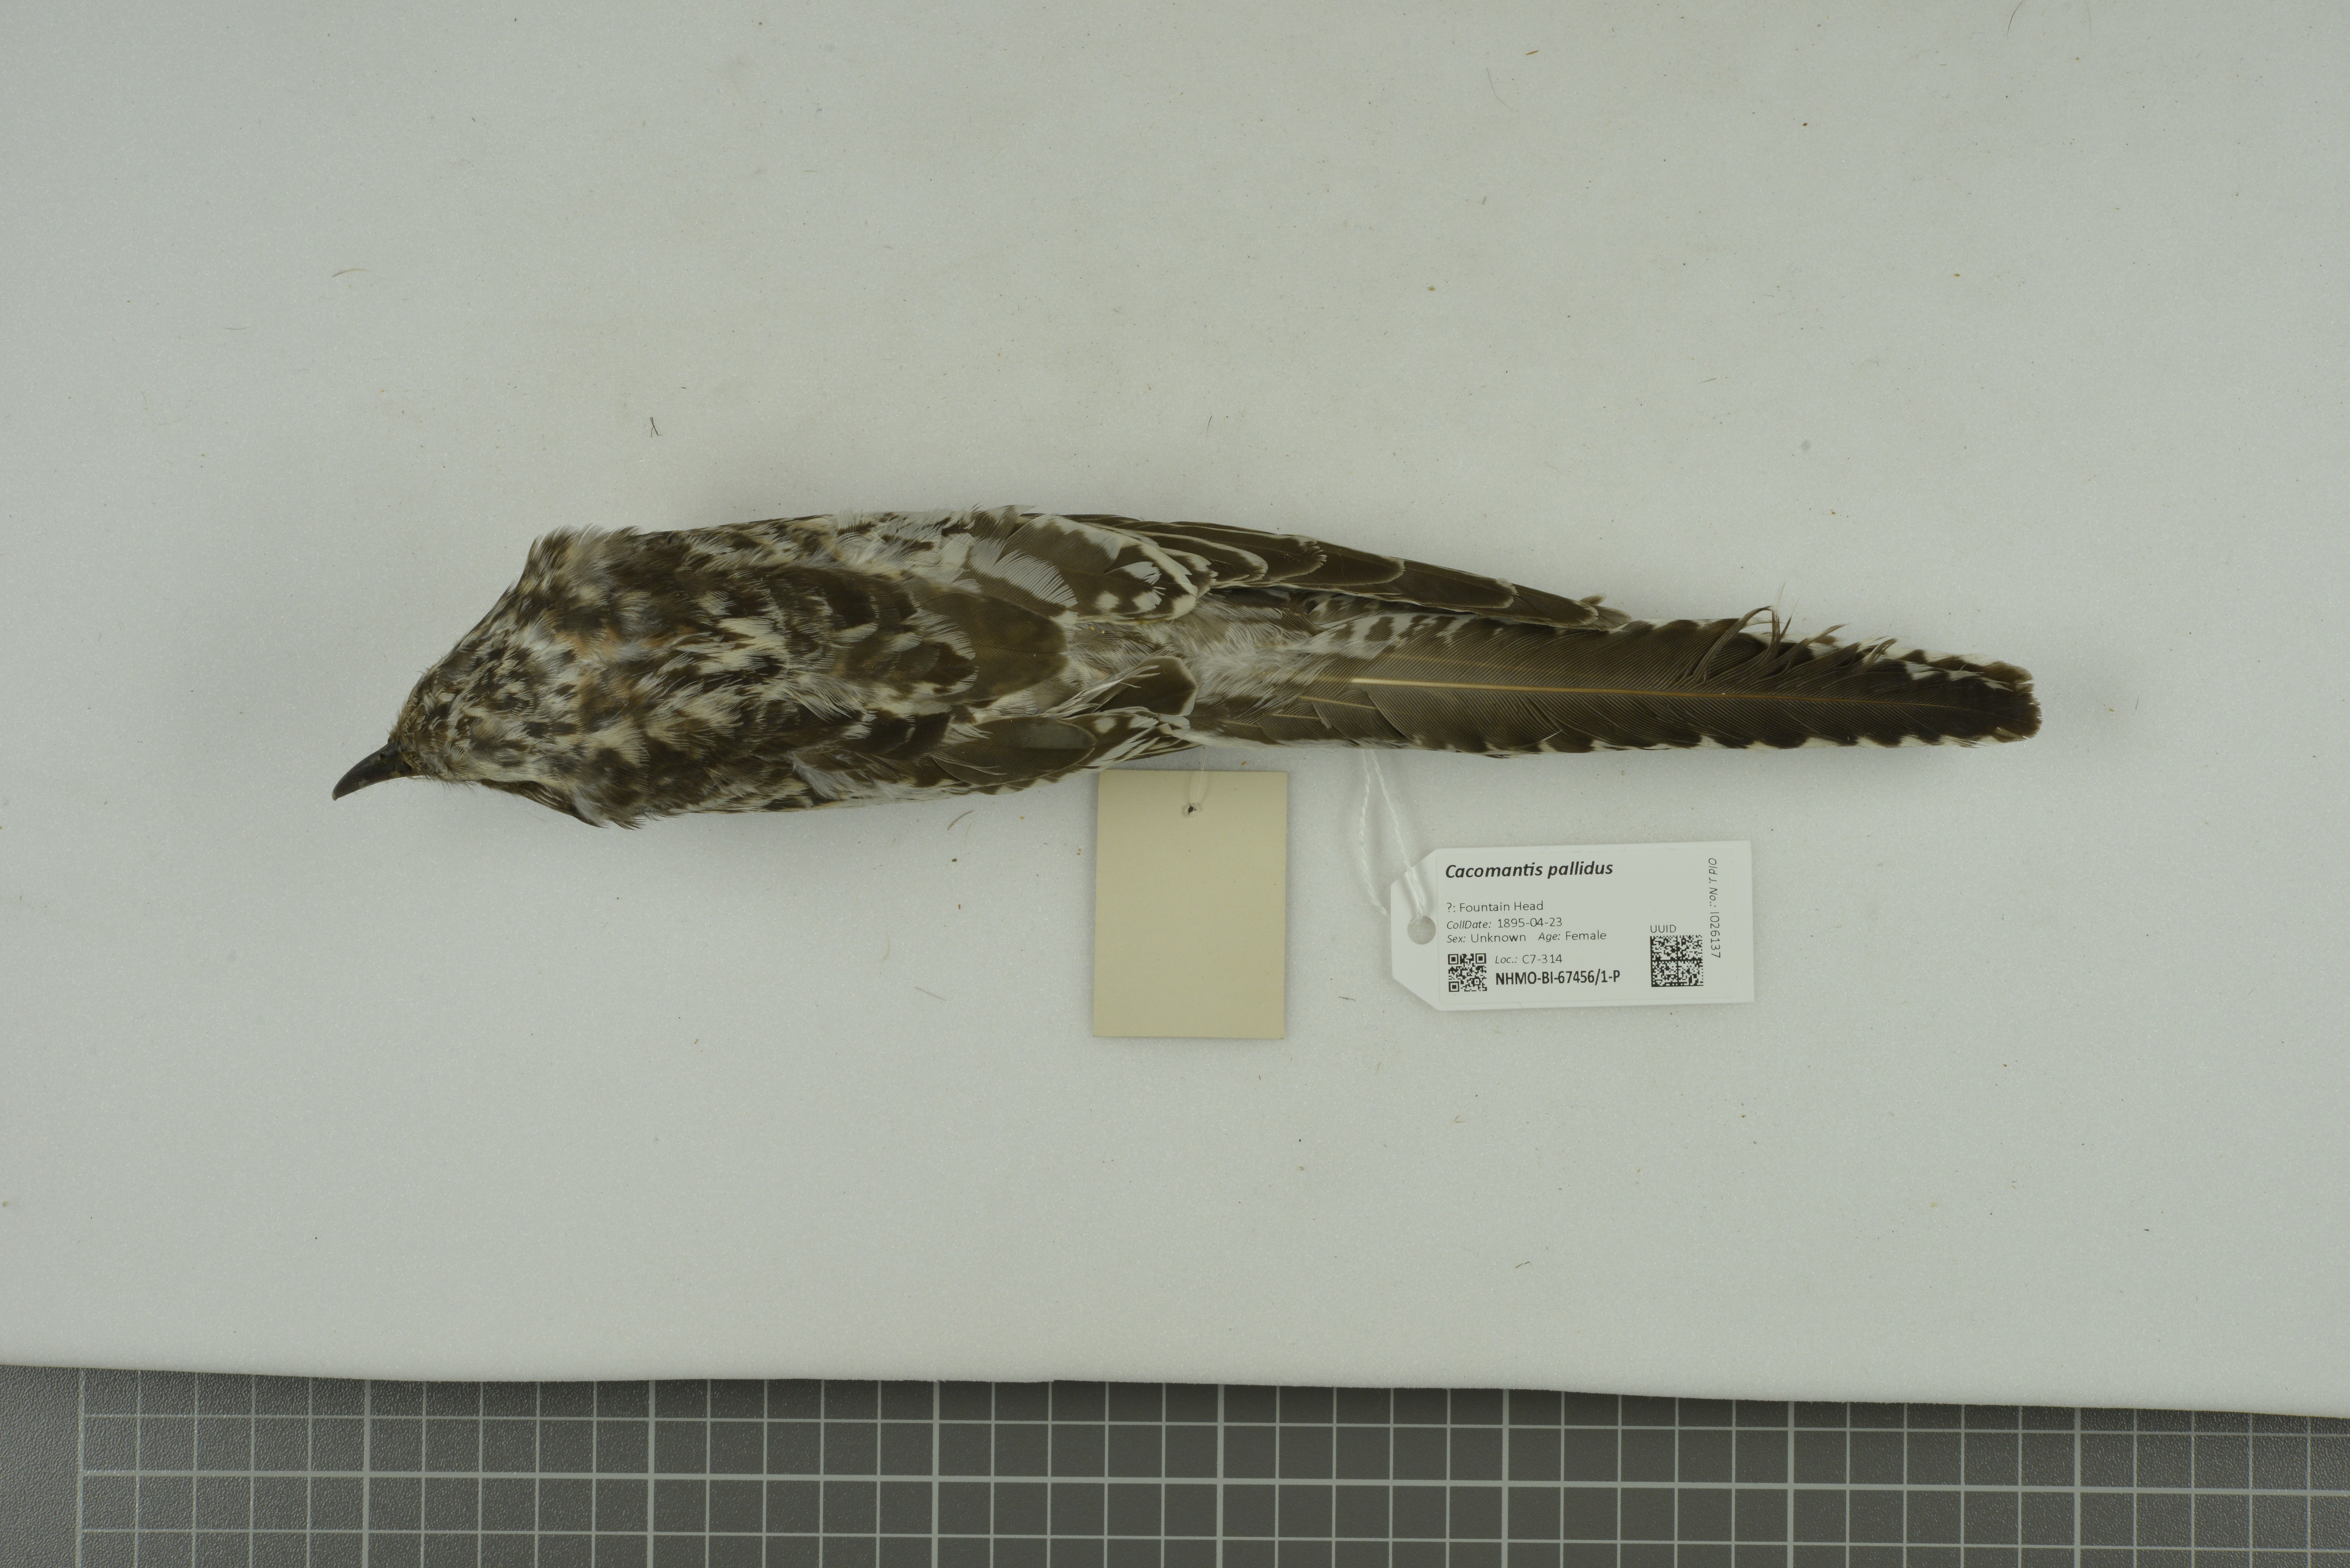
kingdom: Animalia
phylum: Chordata
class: Aves
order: Cuculiformes
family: Cuculidae
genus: Cuculus
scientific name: Cuculus pallidus
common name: Pallid cuckoo
